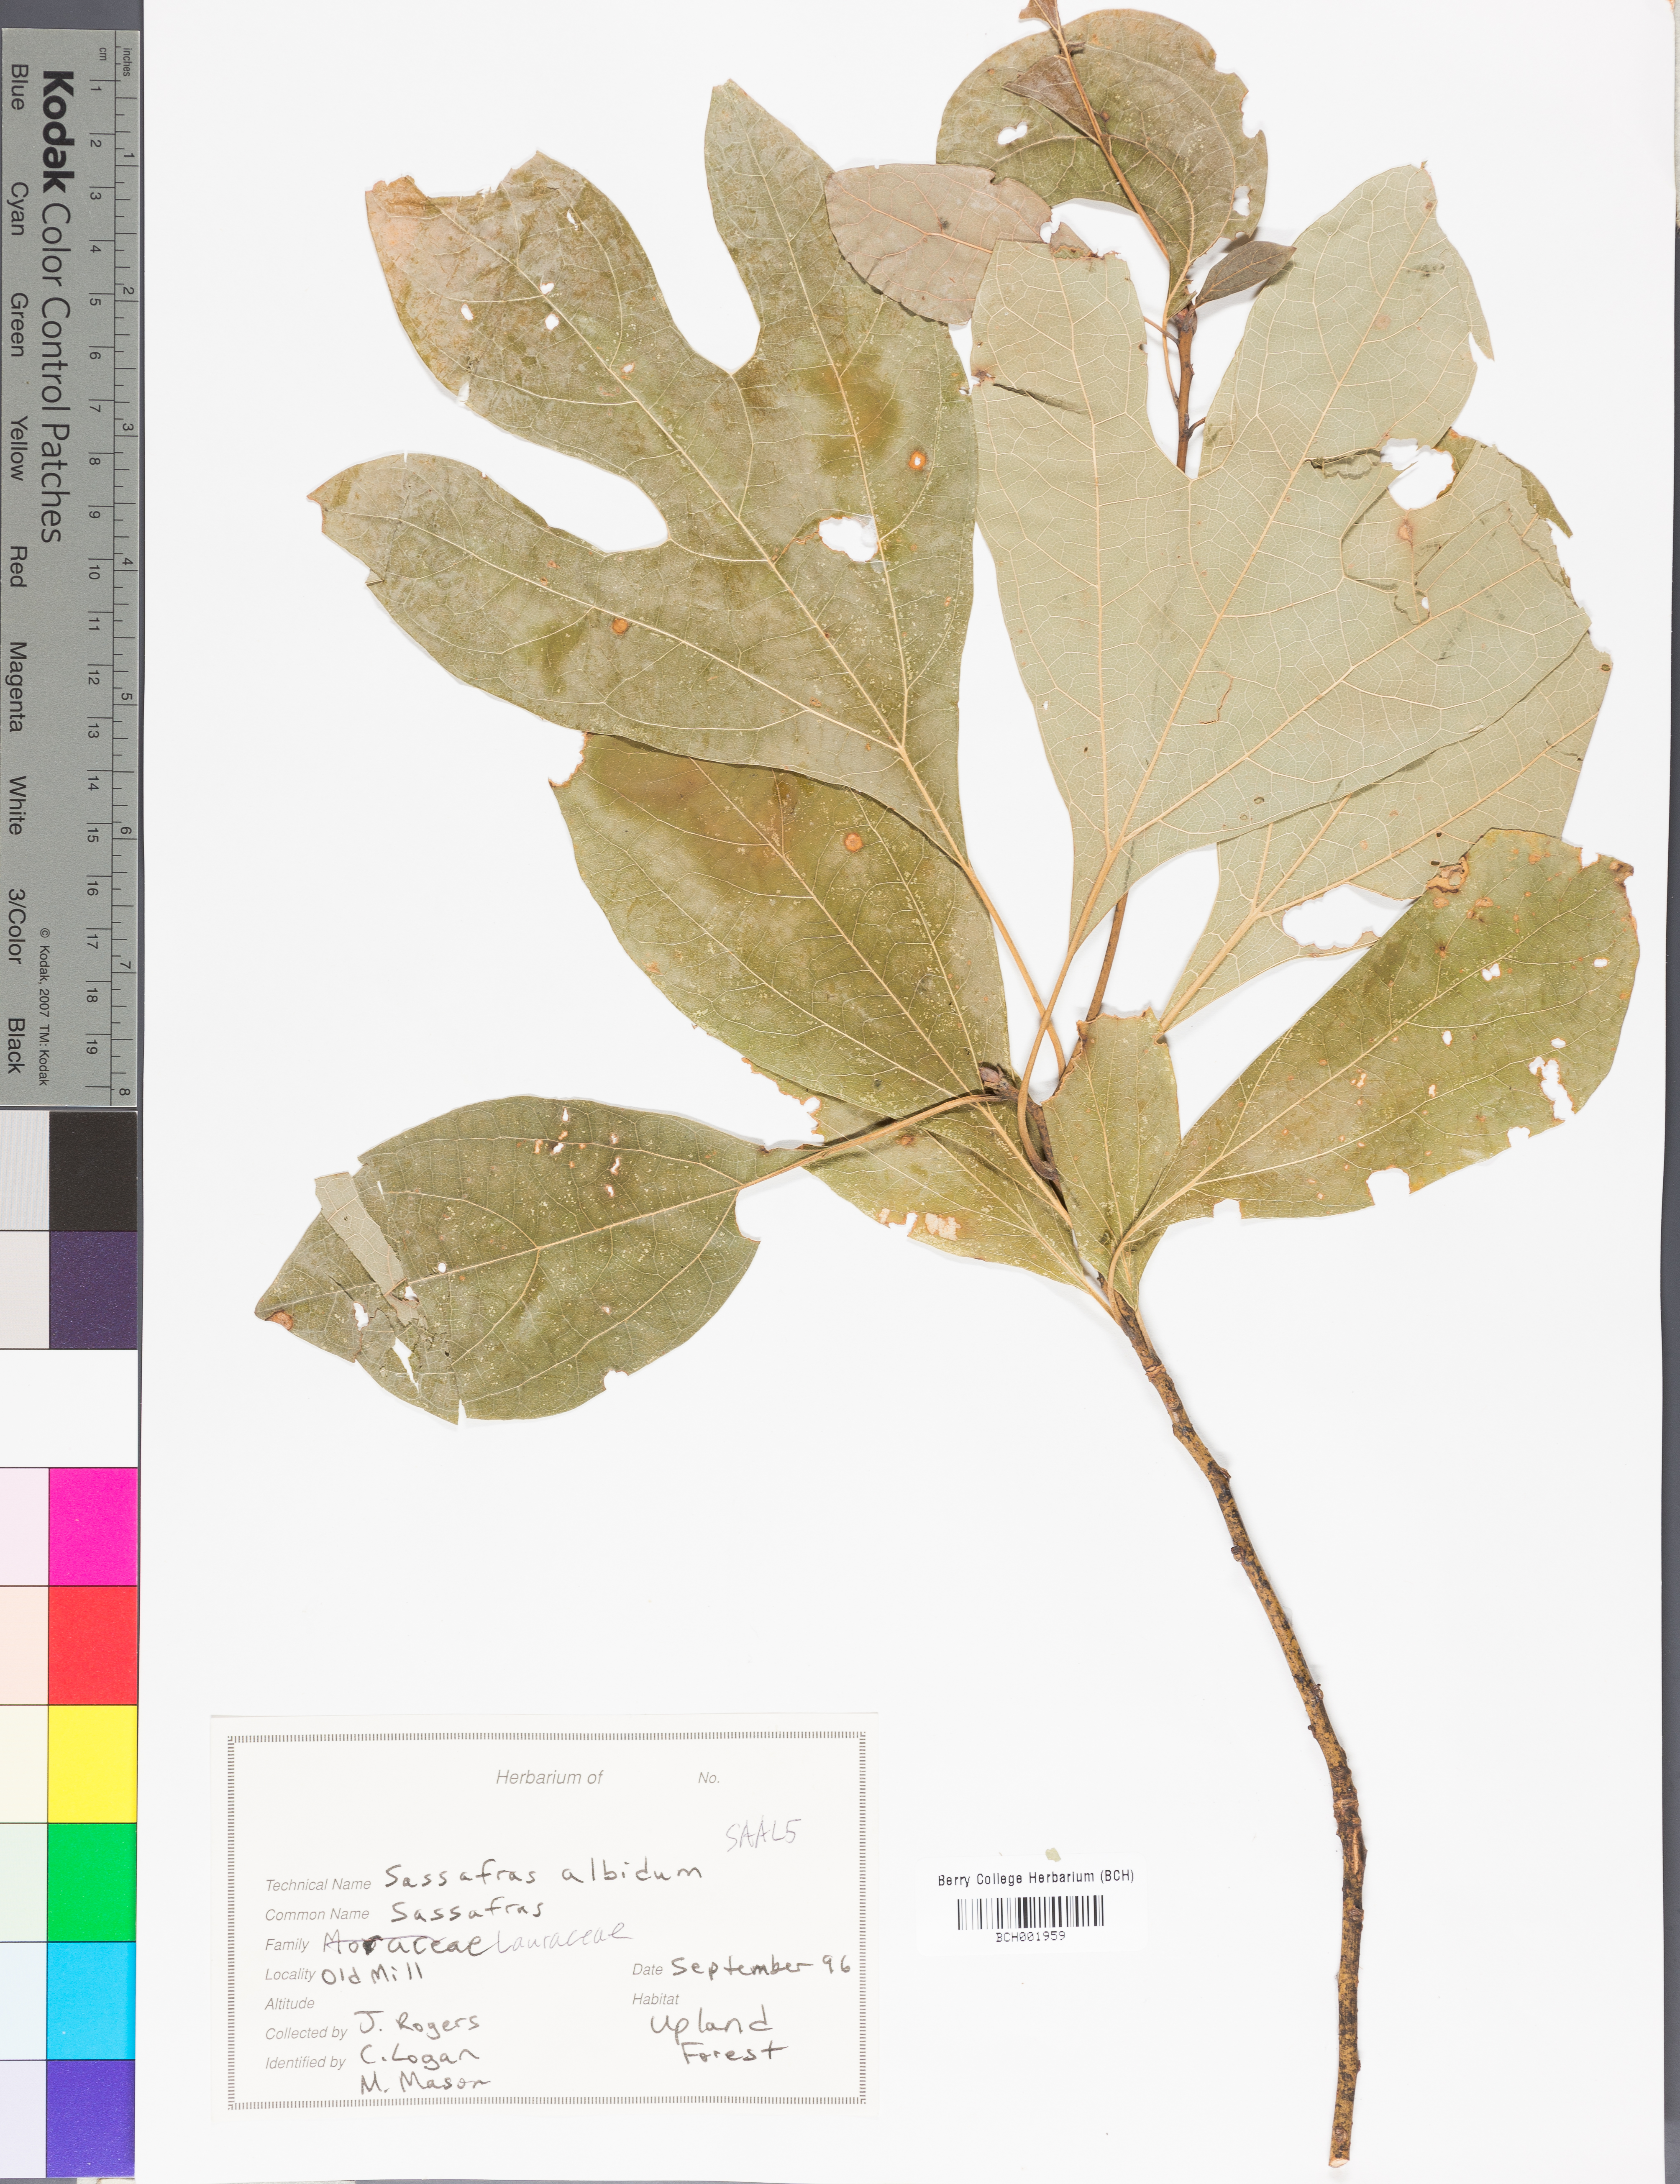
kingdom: Plantae
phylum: Tracheophyta
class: Magnoliopsida
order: Laurales
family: Lauraceae
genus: Sassafras
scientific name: Sassafras albidum
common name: Sassafras
